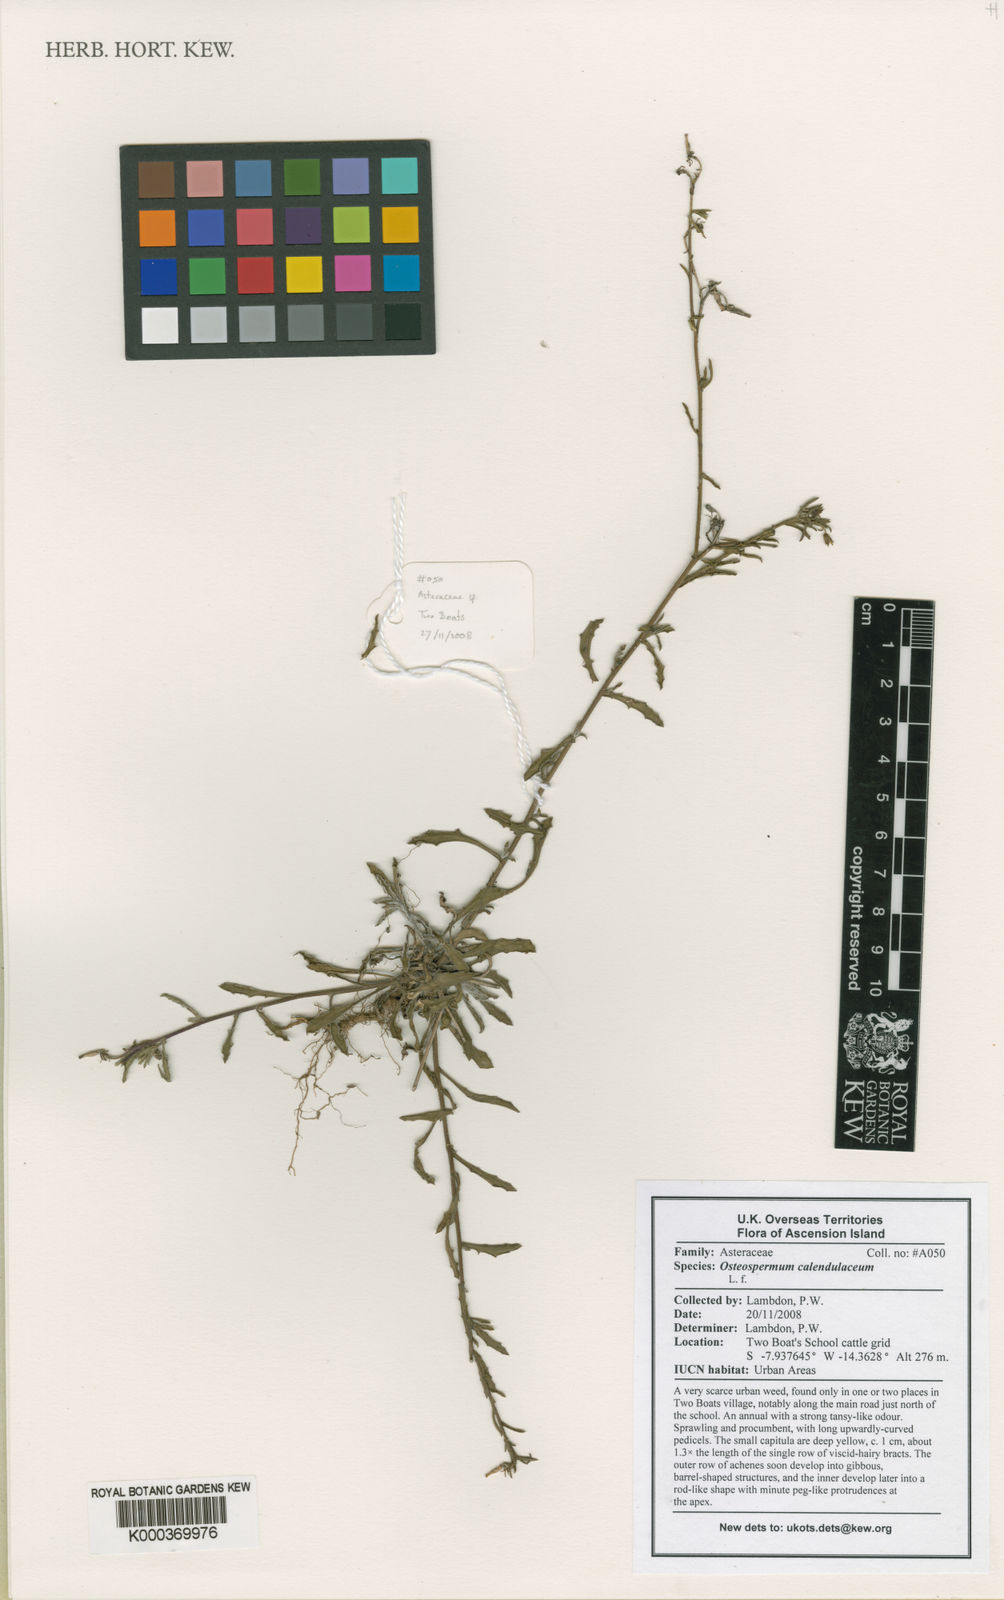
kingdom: Plantae
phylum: Tracheophyta
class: Magnoliopsida
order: Asterales
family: Asteraceae
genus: Osteospermum
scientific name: Osteospermum calendulaceum
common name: Stinking roger
